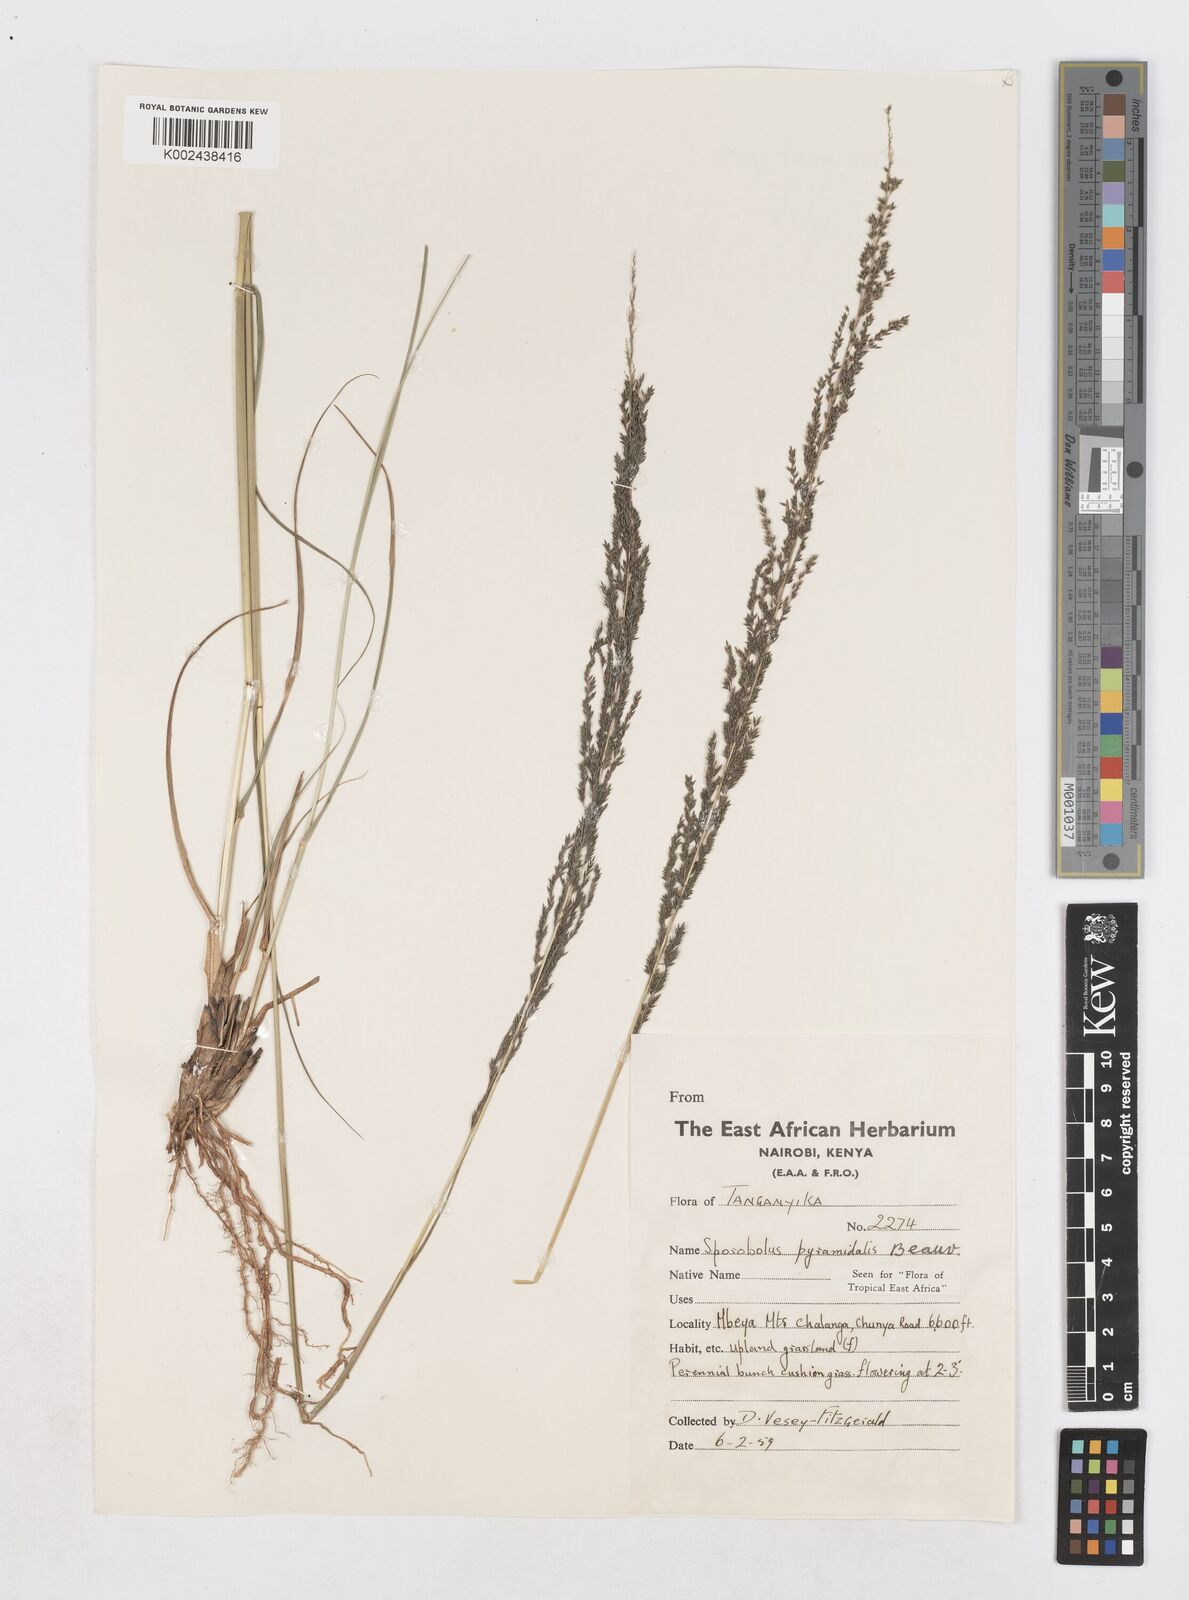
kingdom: Plantae
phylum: Tracheophyta
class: Liliopsida
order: Poales
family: Poaceae
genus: Sporobolus
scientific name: Sporobolus pyramidalis
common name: West indian dropseed
